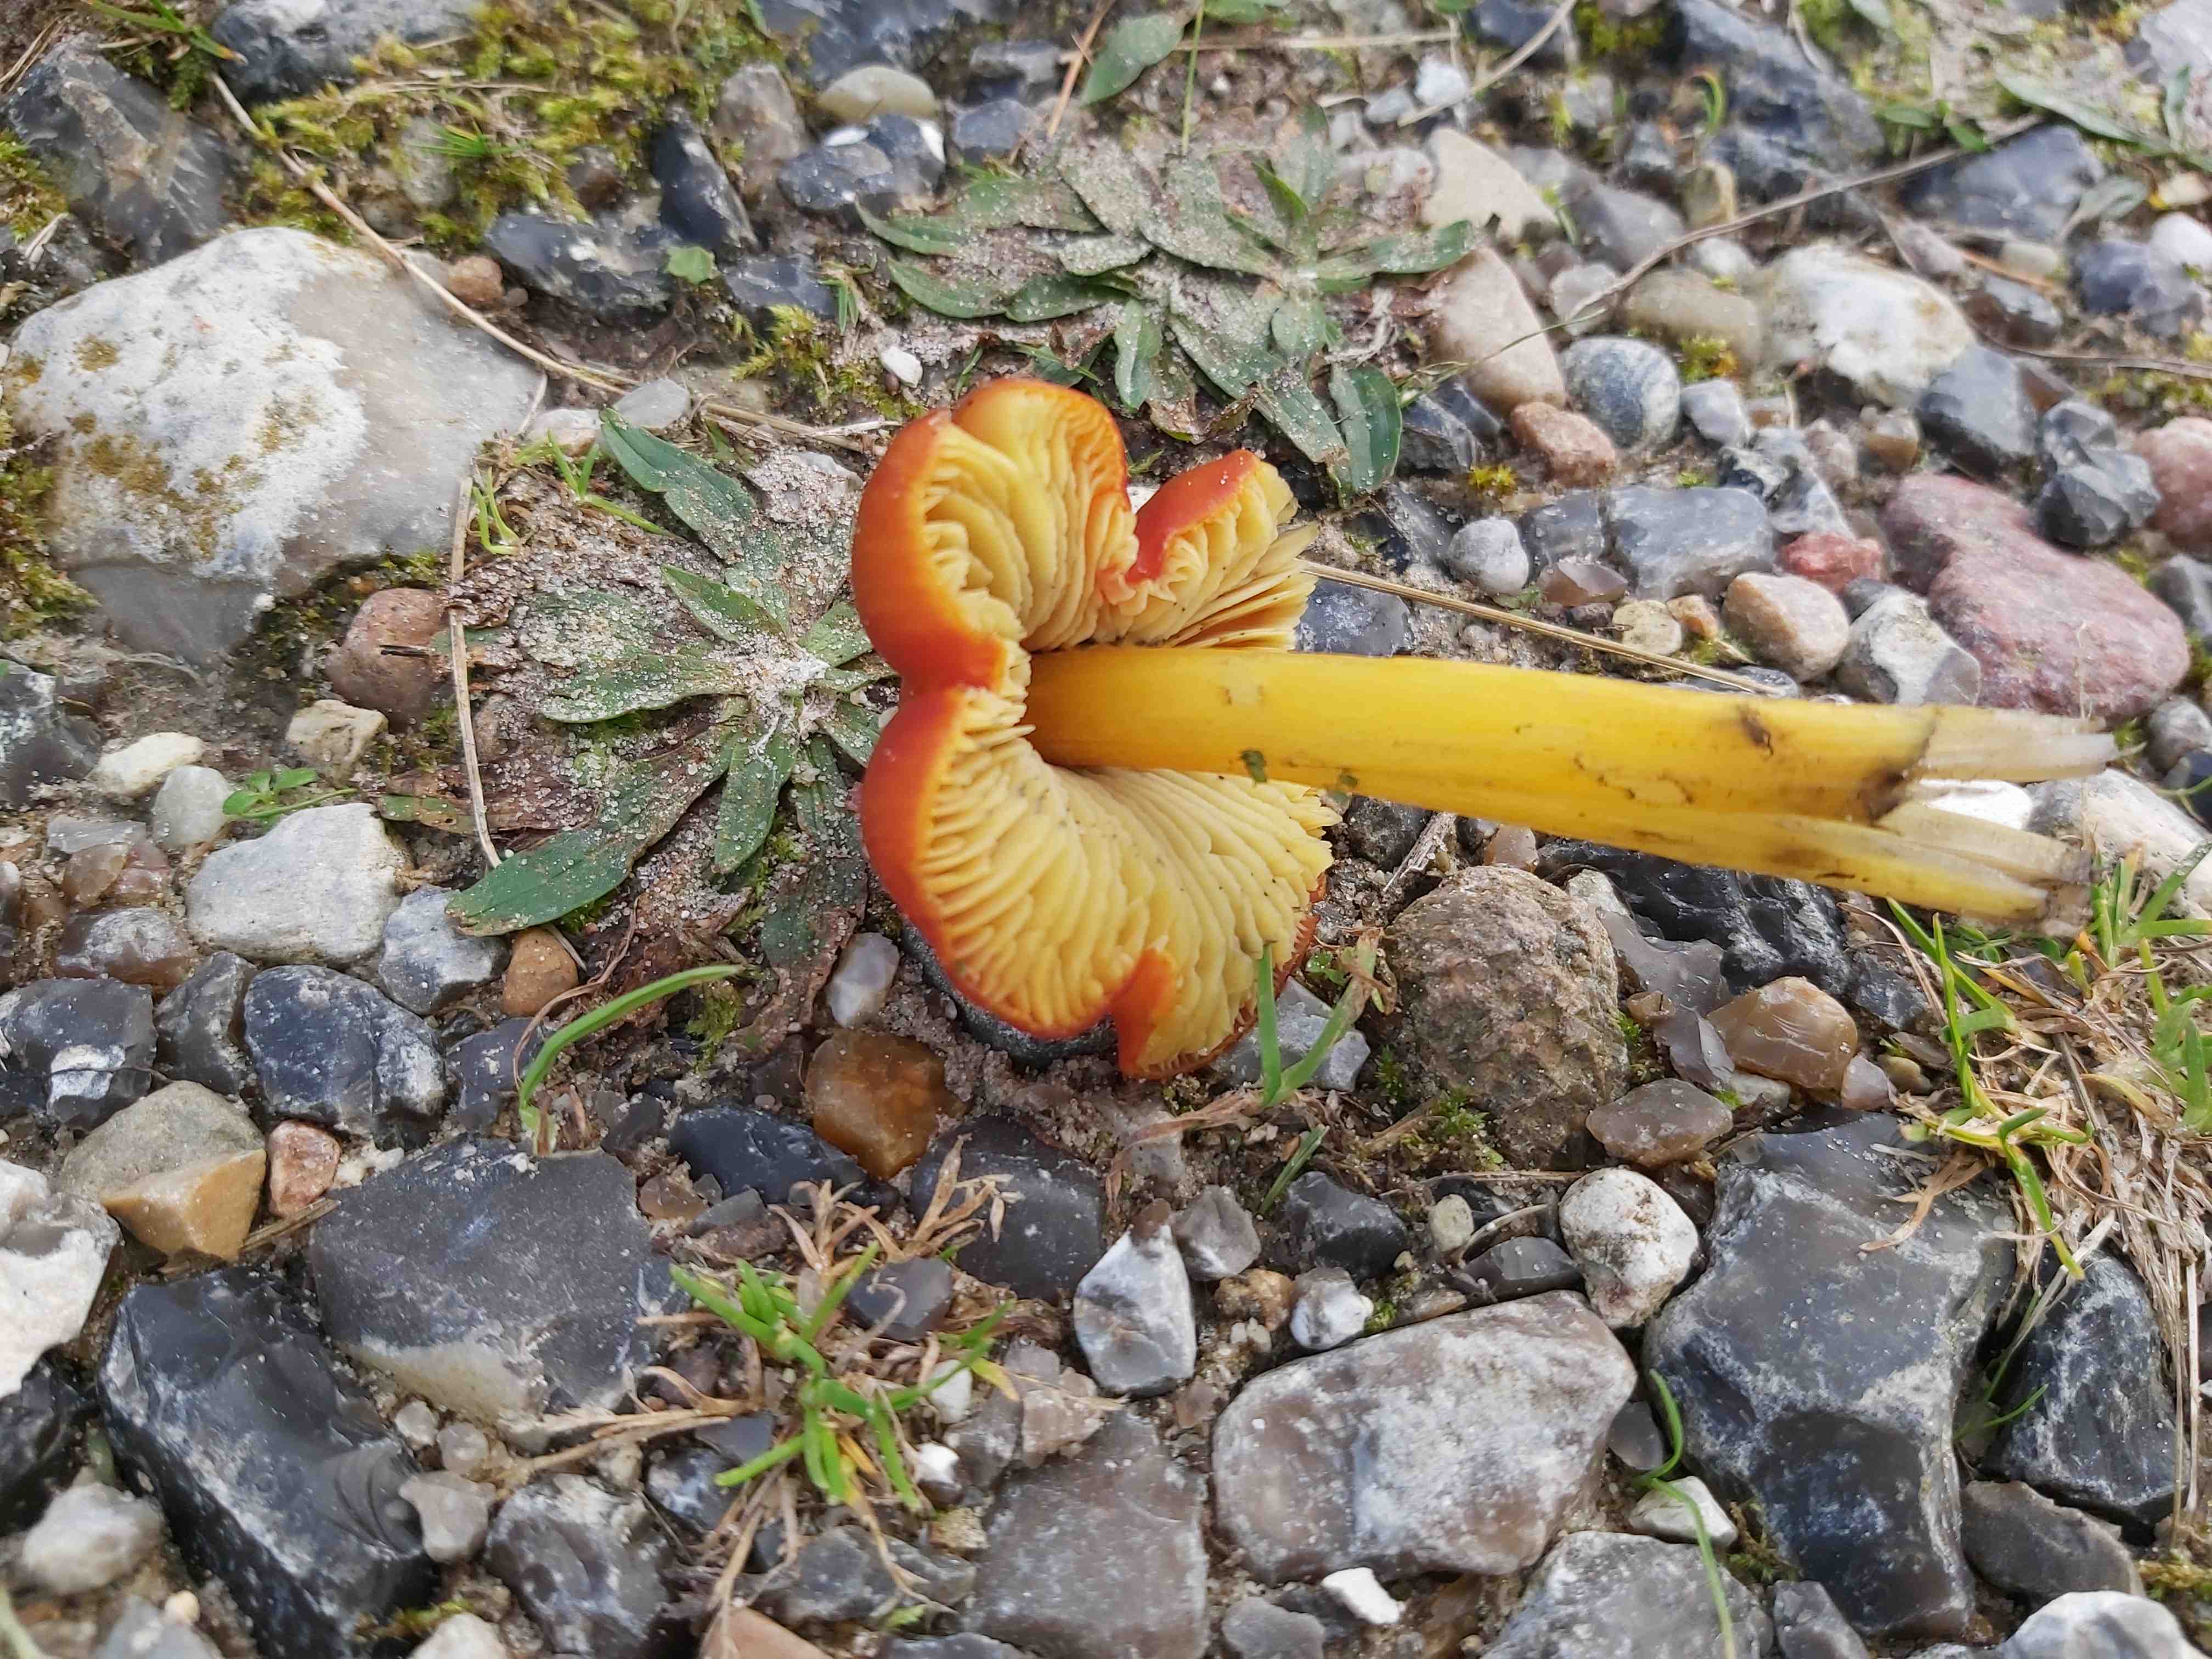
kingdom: Fungi
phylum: Basidiomycota
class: Agaricomycetes
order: Agaricales
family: Hygrophoraceae
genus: Hygrocybe
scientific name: Hygrocybe conica
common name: kegle-vokshat
